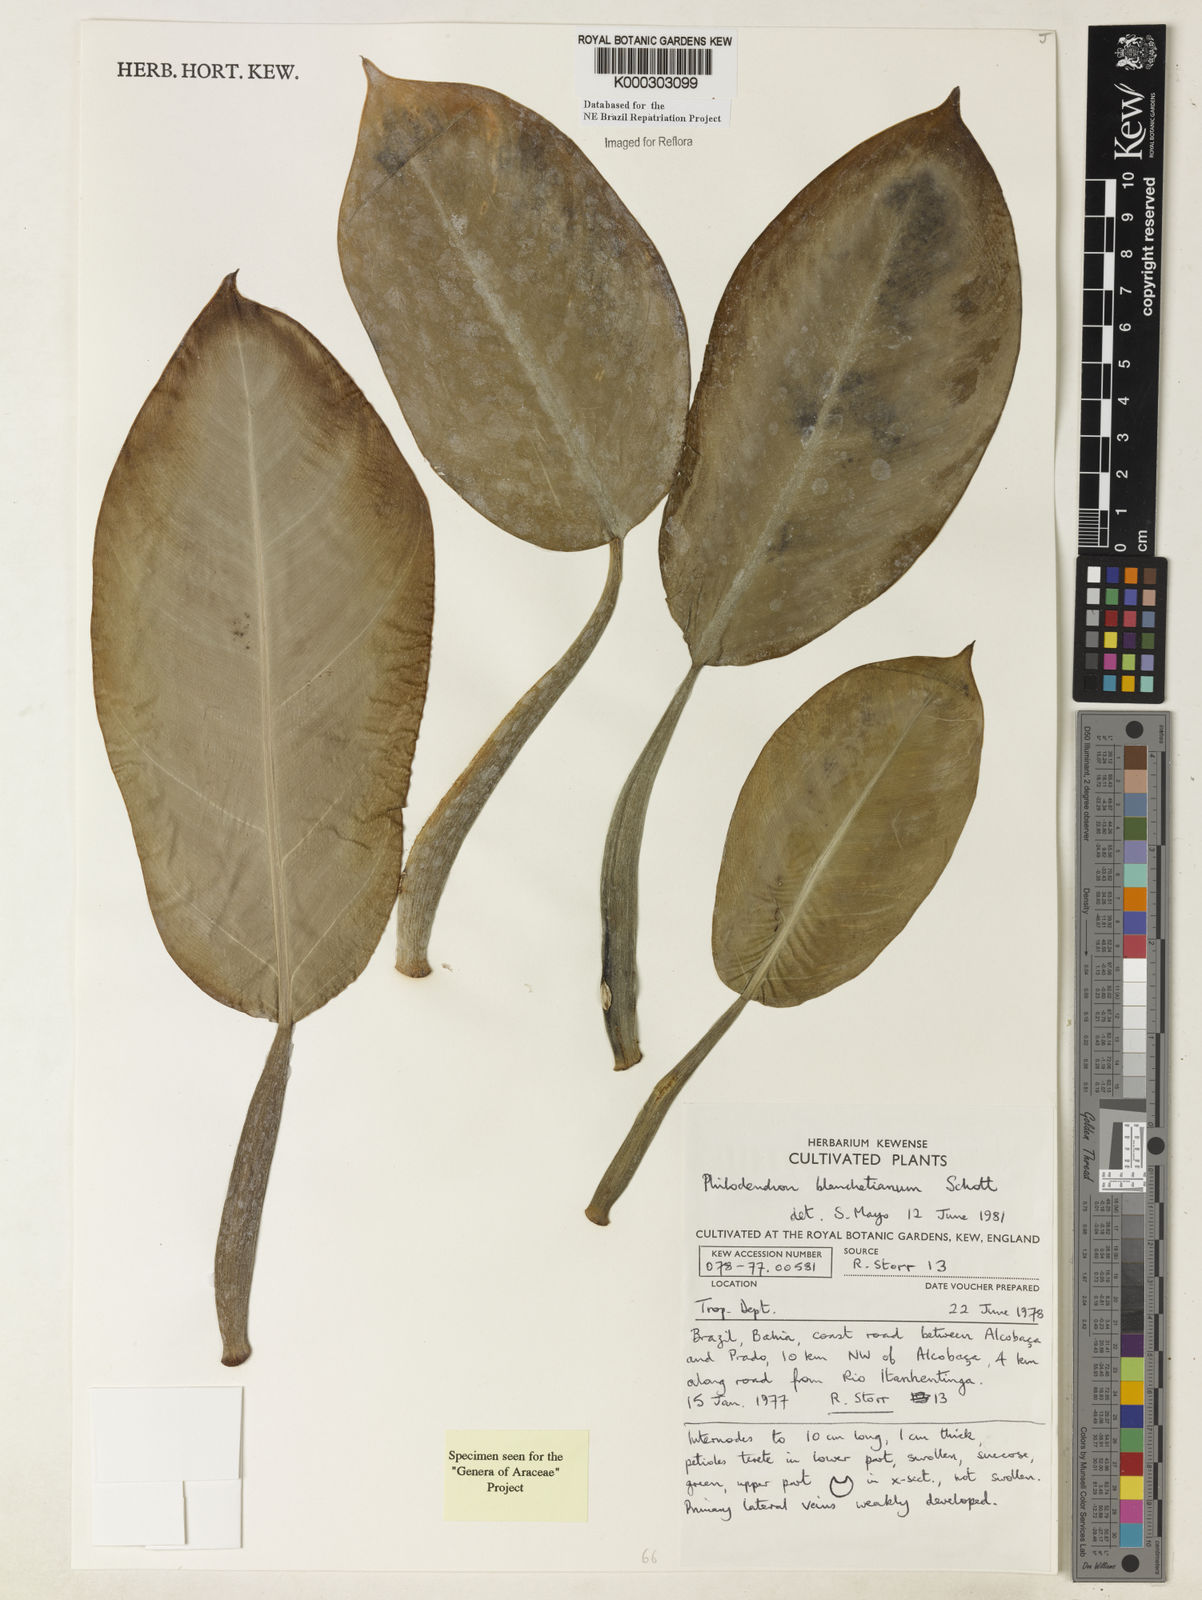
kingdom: Plantae
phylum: Tracheophyta
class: Liliopsida
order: Alismatales
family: Araceae
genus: Philodendron
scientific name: Philodendron blanchetianum
